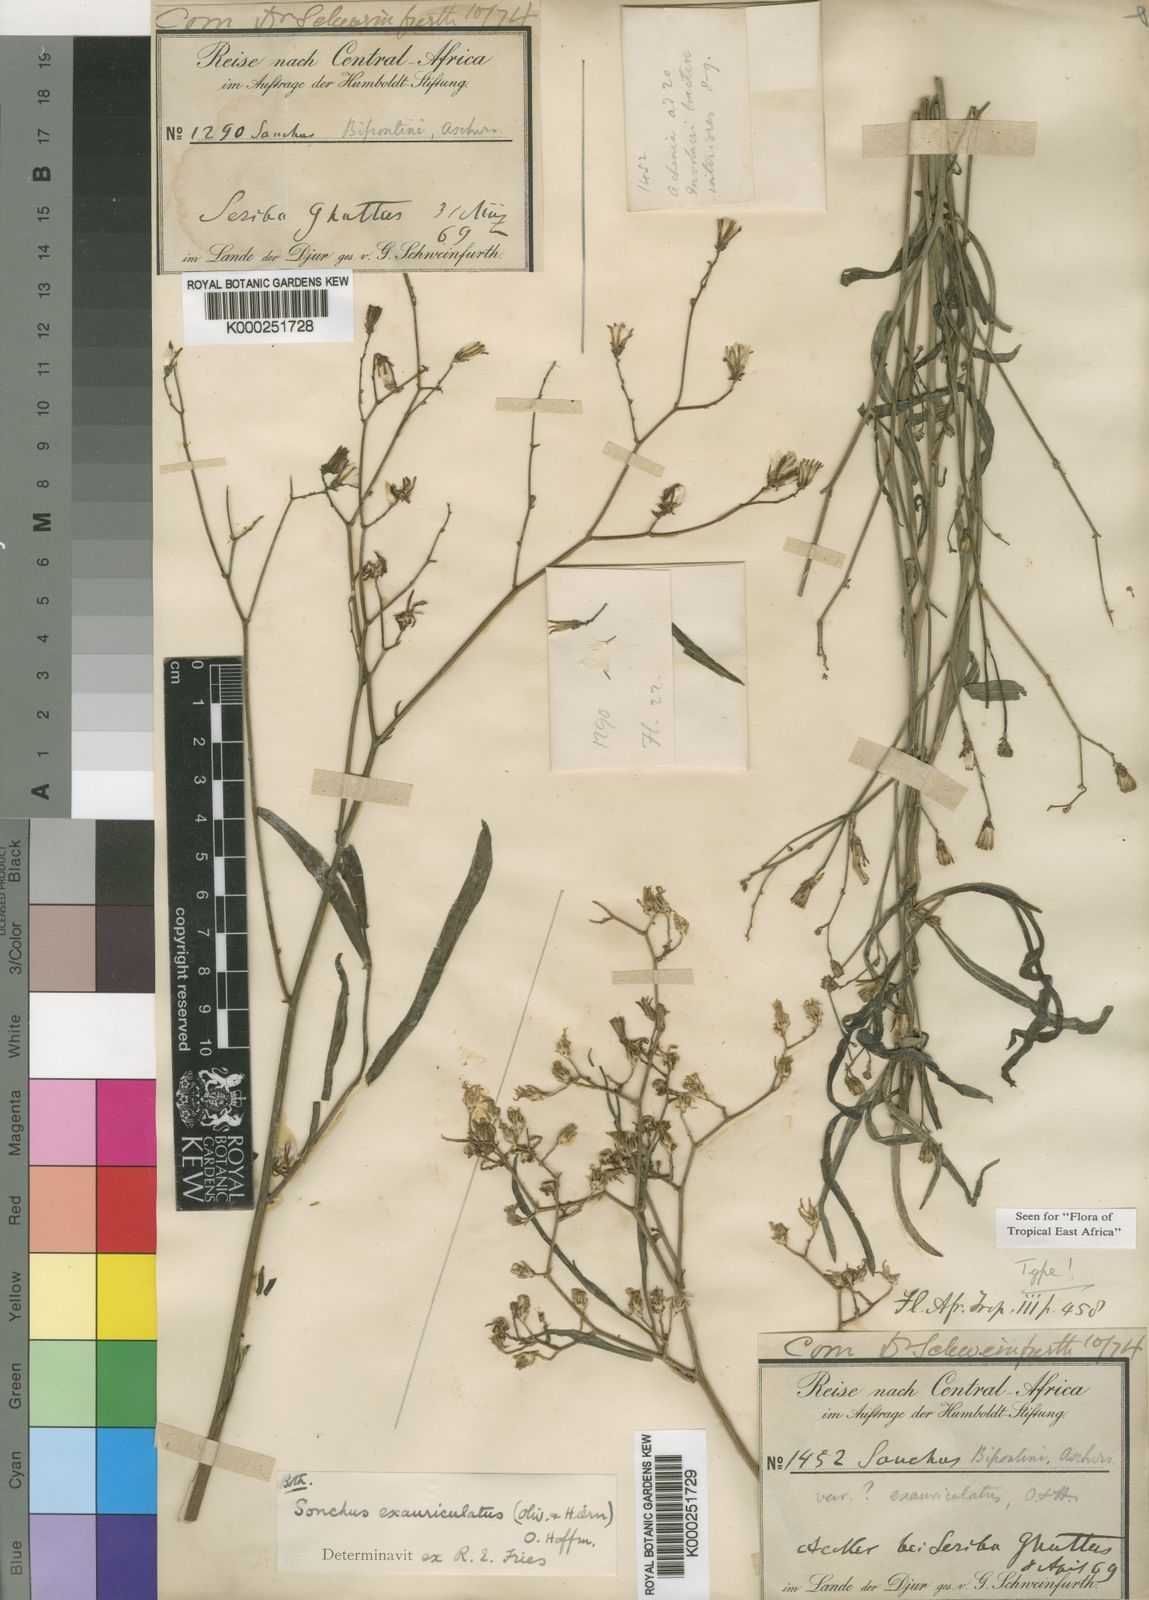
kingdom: Plantae
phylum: Tracheophyta
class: Magnoliopsida
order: Asterales
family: Asteraceae
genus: Launaea
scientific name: Launaea cornuta
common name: Bitter-lettuce
